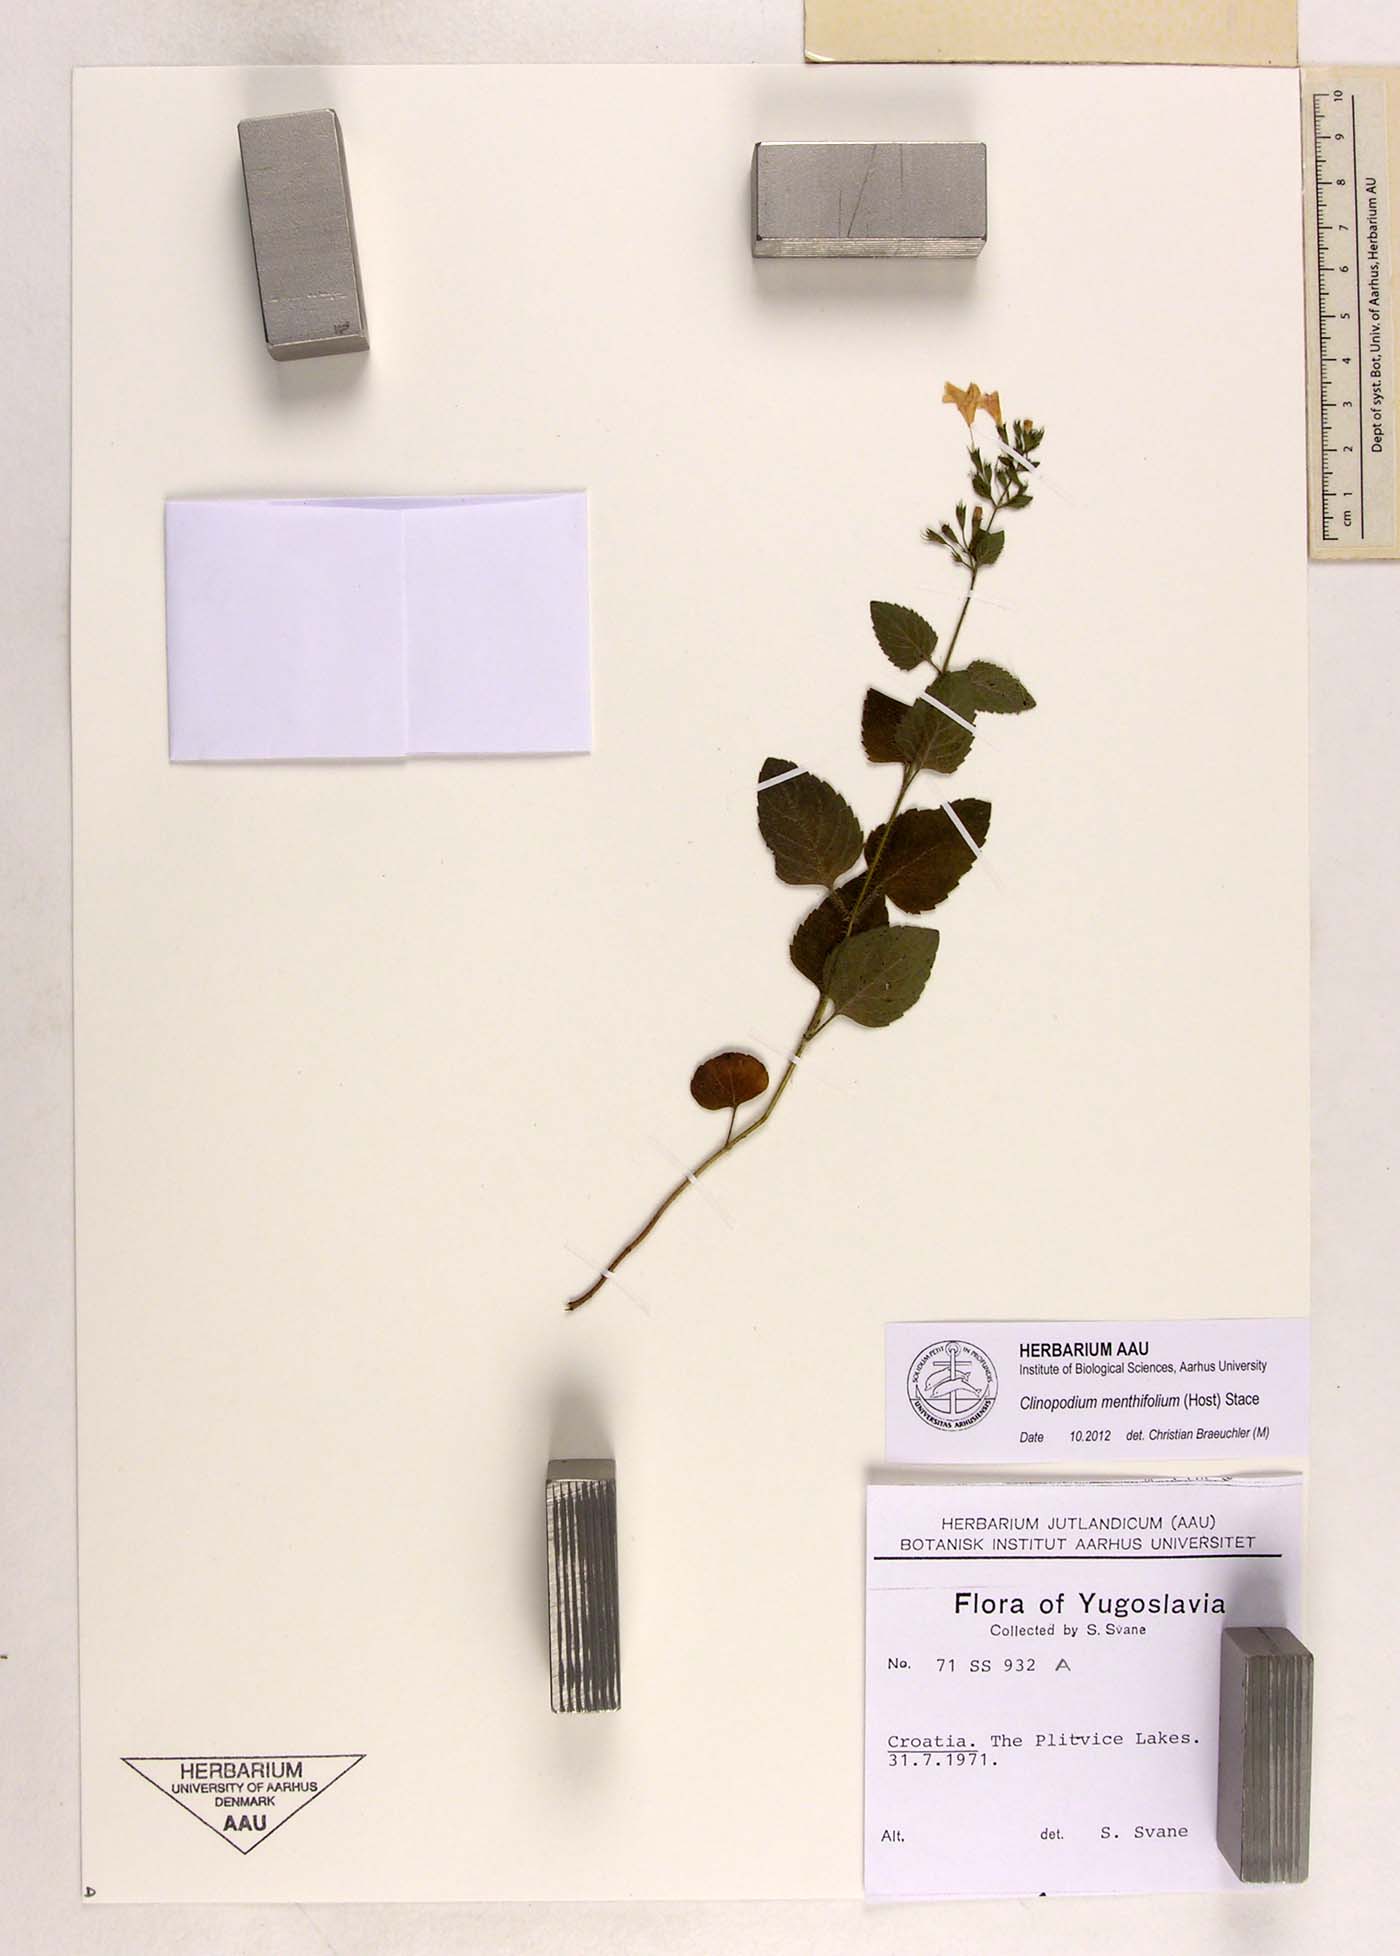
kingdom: Plantae
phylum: Tracheophyta
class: Magnoliopsida
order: Lamiales
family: Lamiaceae
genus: Clinopodium
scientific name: Clinopodium menthifolium
